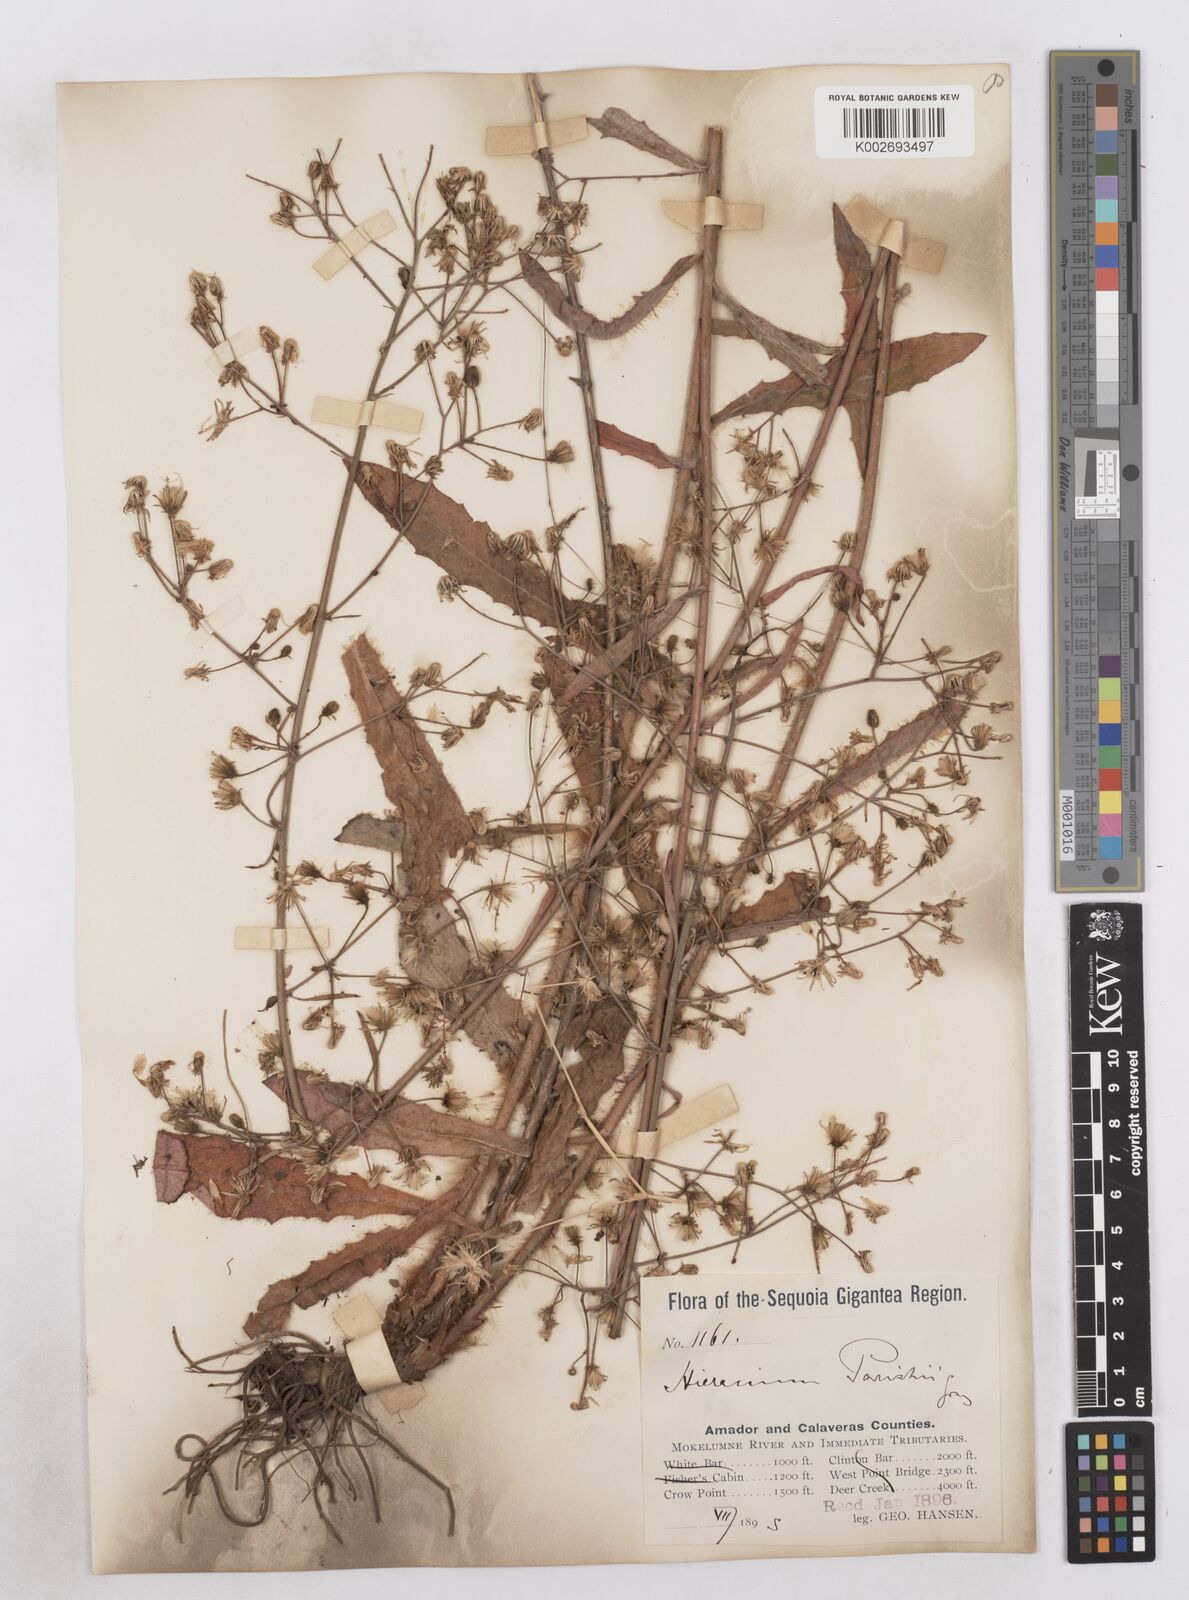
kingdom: Plantae
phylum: Tracheophyta
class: Magnoliopsida
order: Asterales
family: Asteraceae
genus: Hieracium
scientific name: Hieracium argutum
